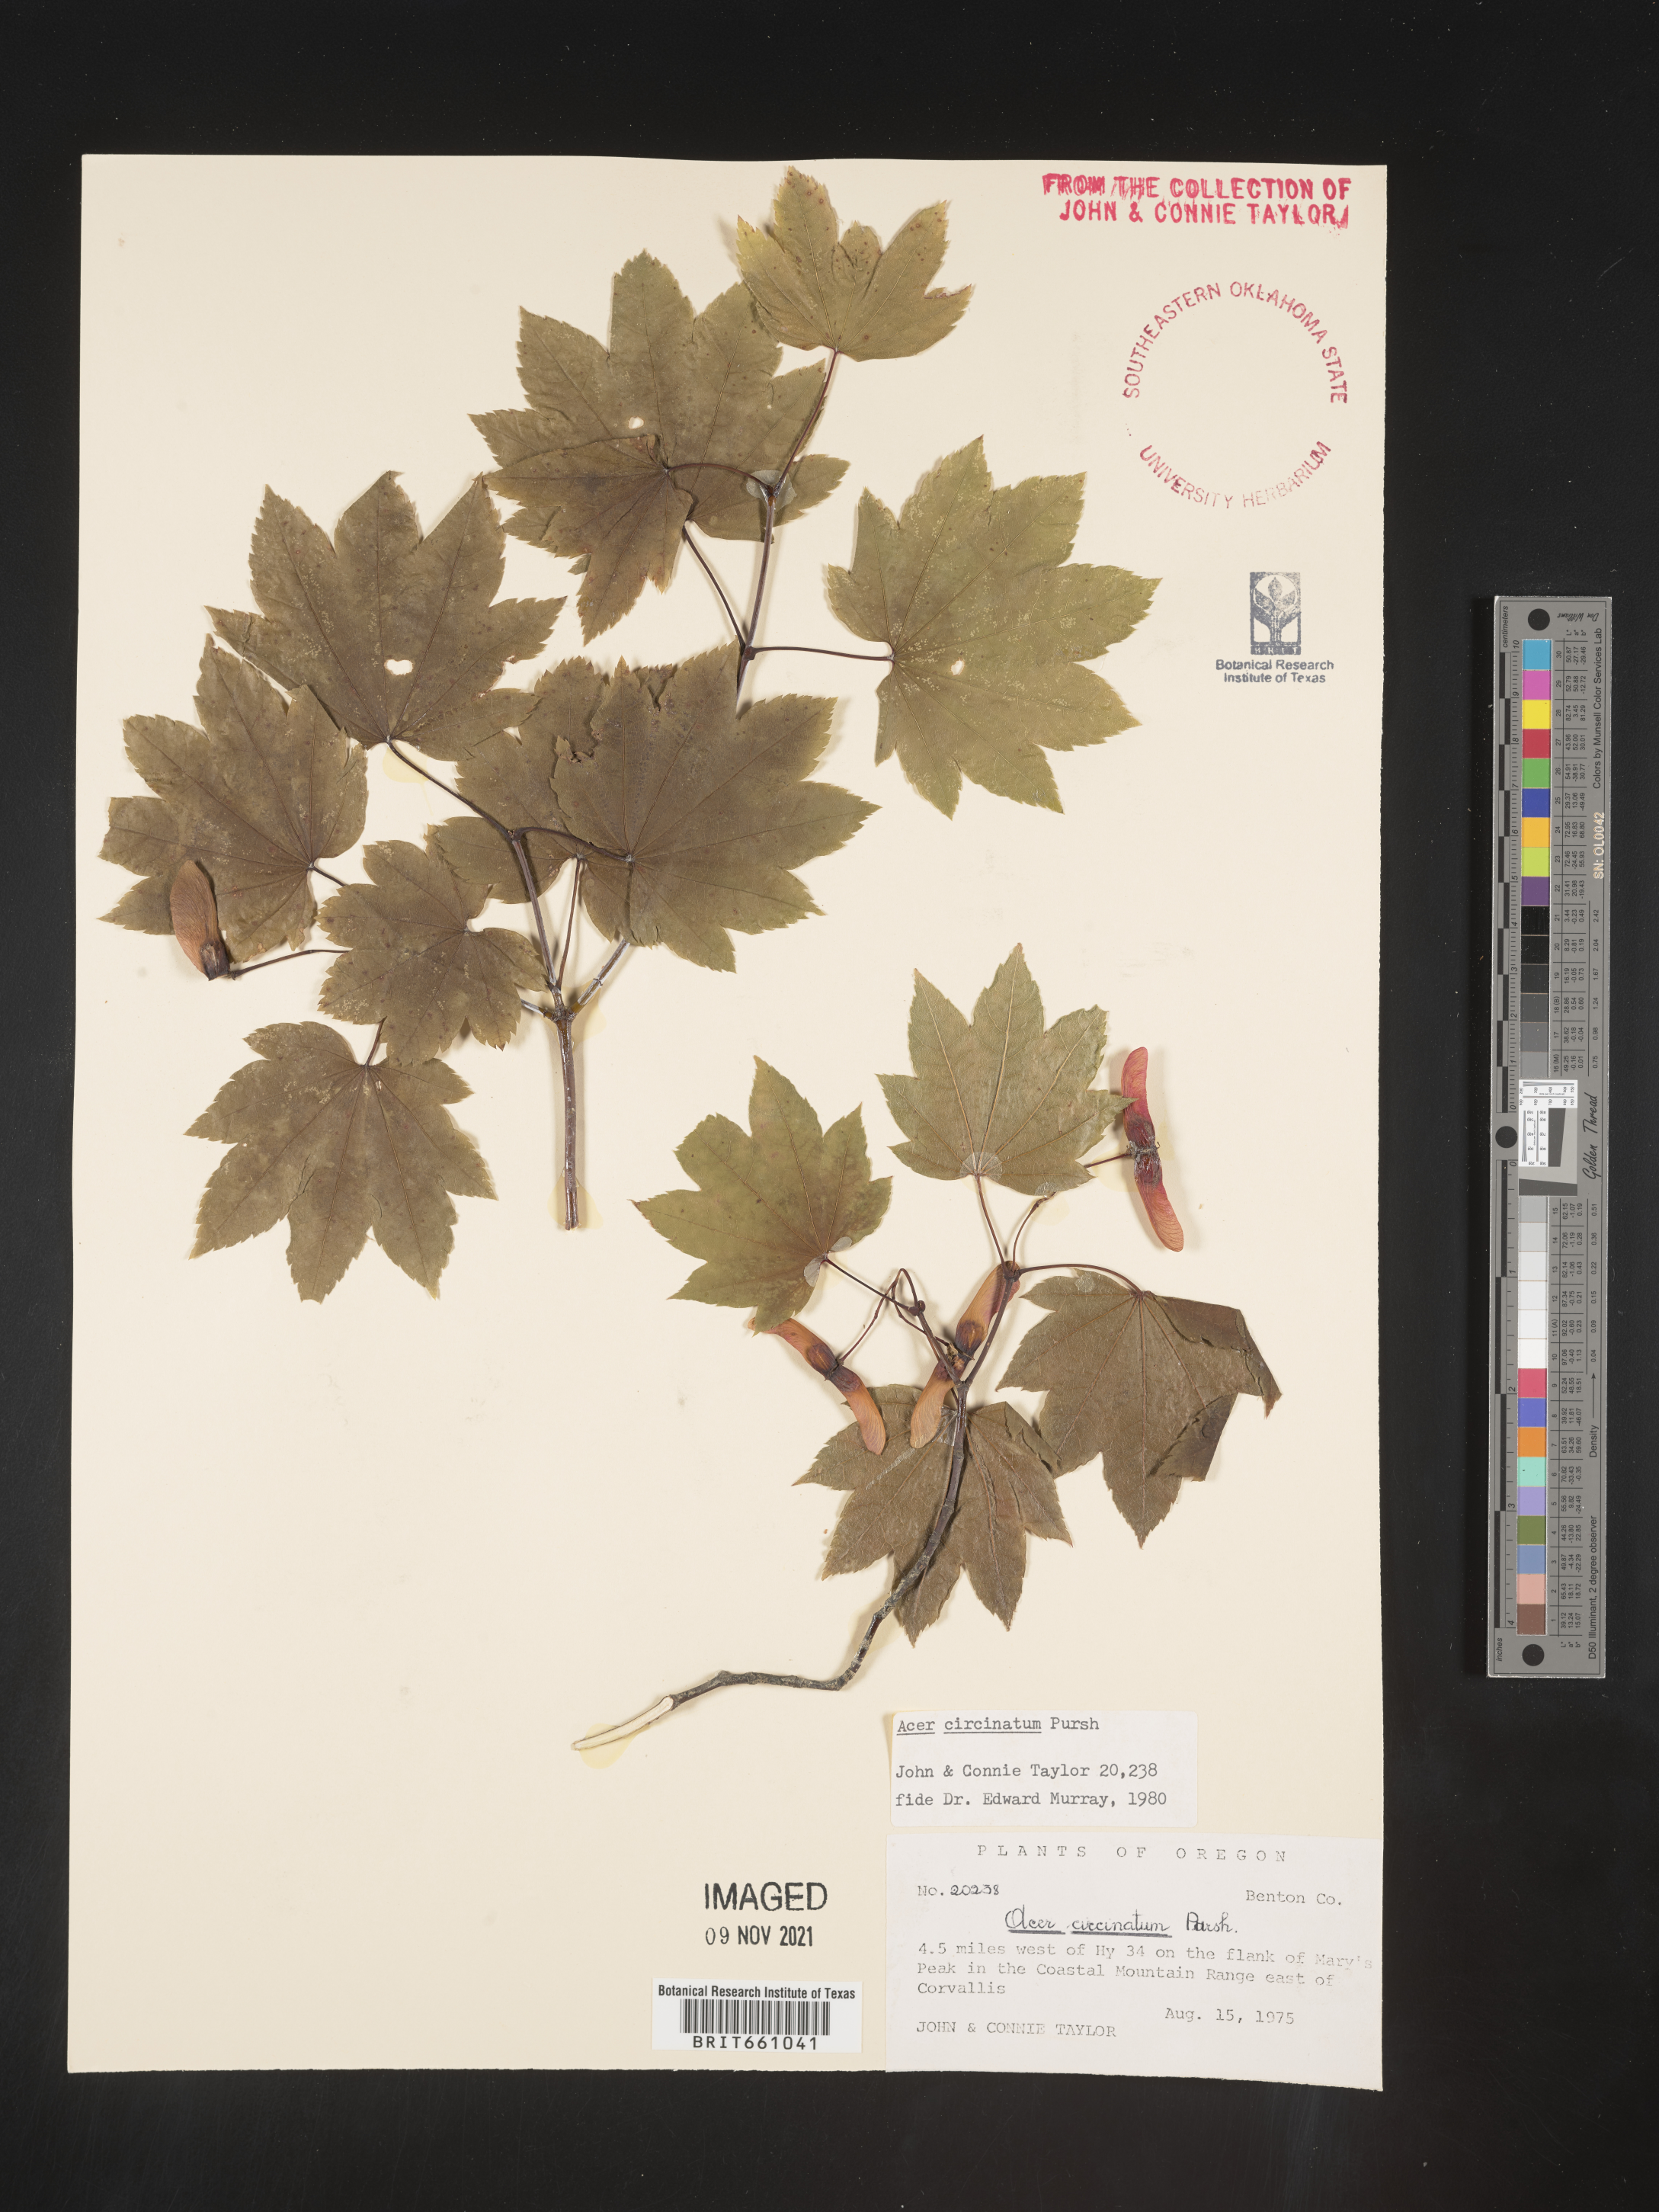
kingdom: Plantae
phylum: Tracheophyta
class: Magnoliopsida
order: Sapindales
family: Sapindaceae
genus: Acer
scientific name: Acer circinatum
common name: Vine maple
